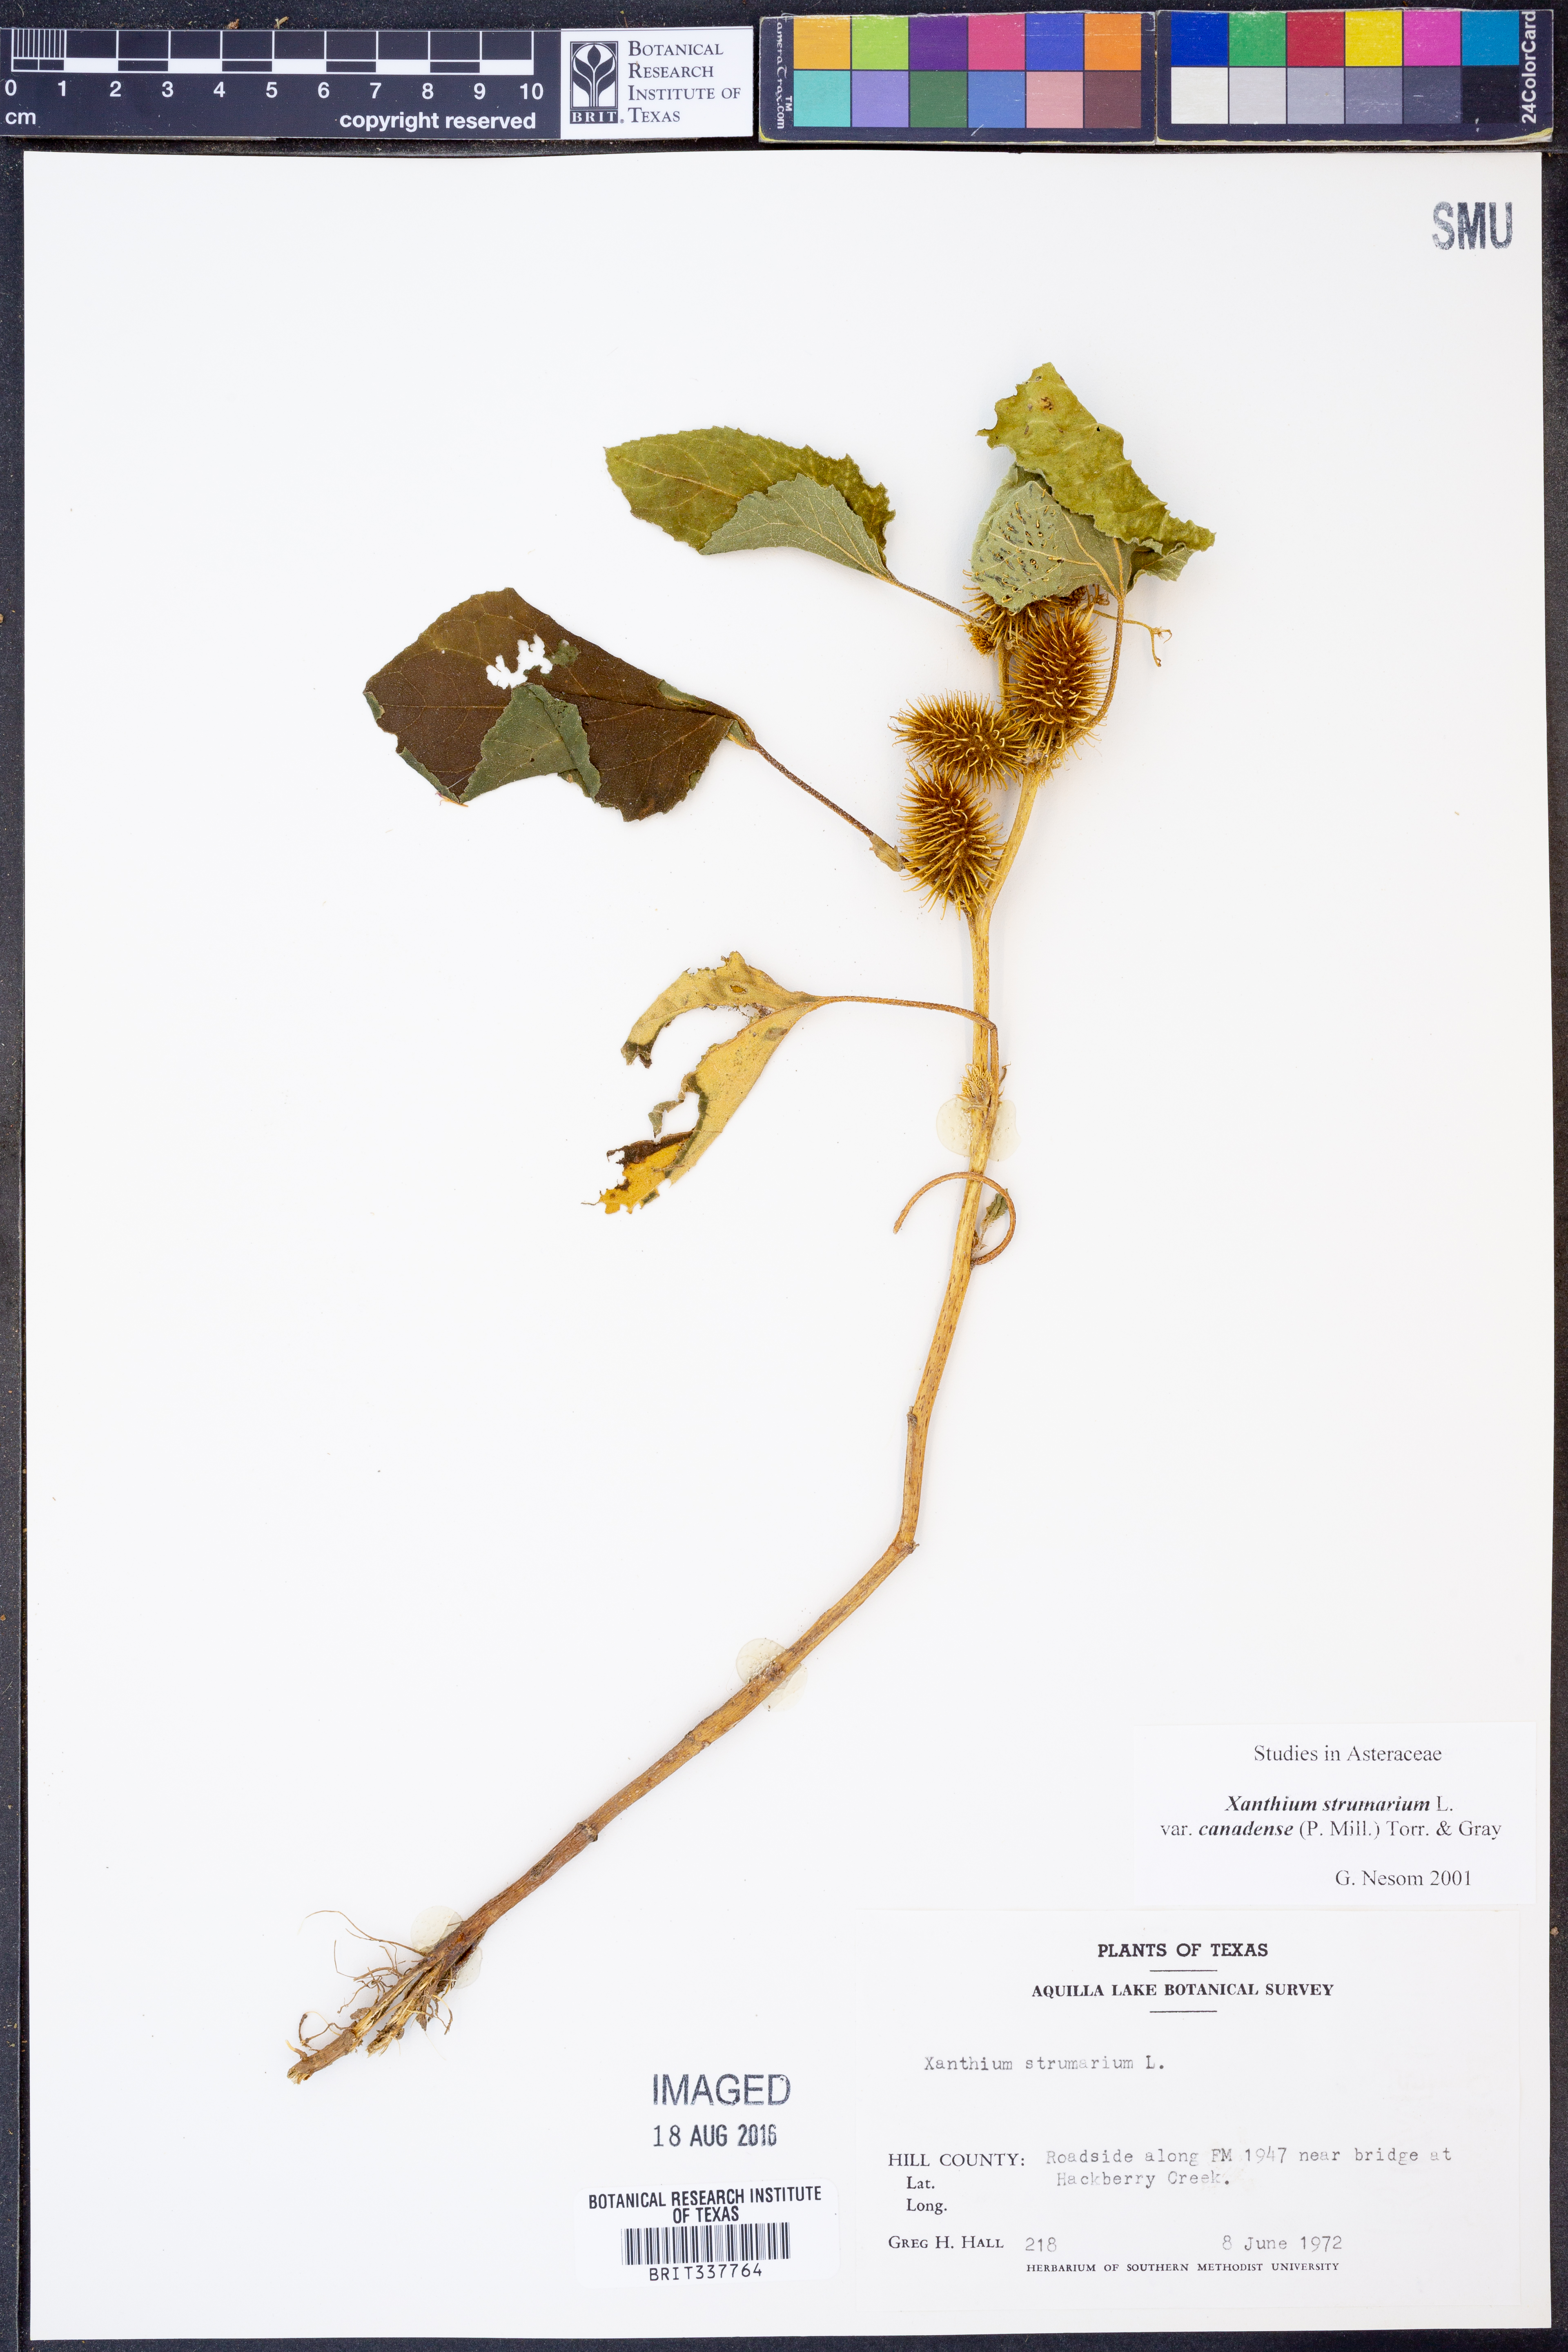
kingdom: Plantae
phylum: Tracheophyta
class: Magnoliopsida
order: Asterales
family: Asteraceae
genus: Xanthium
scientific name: Xanthium orientale
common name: Californian burr
